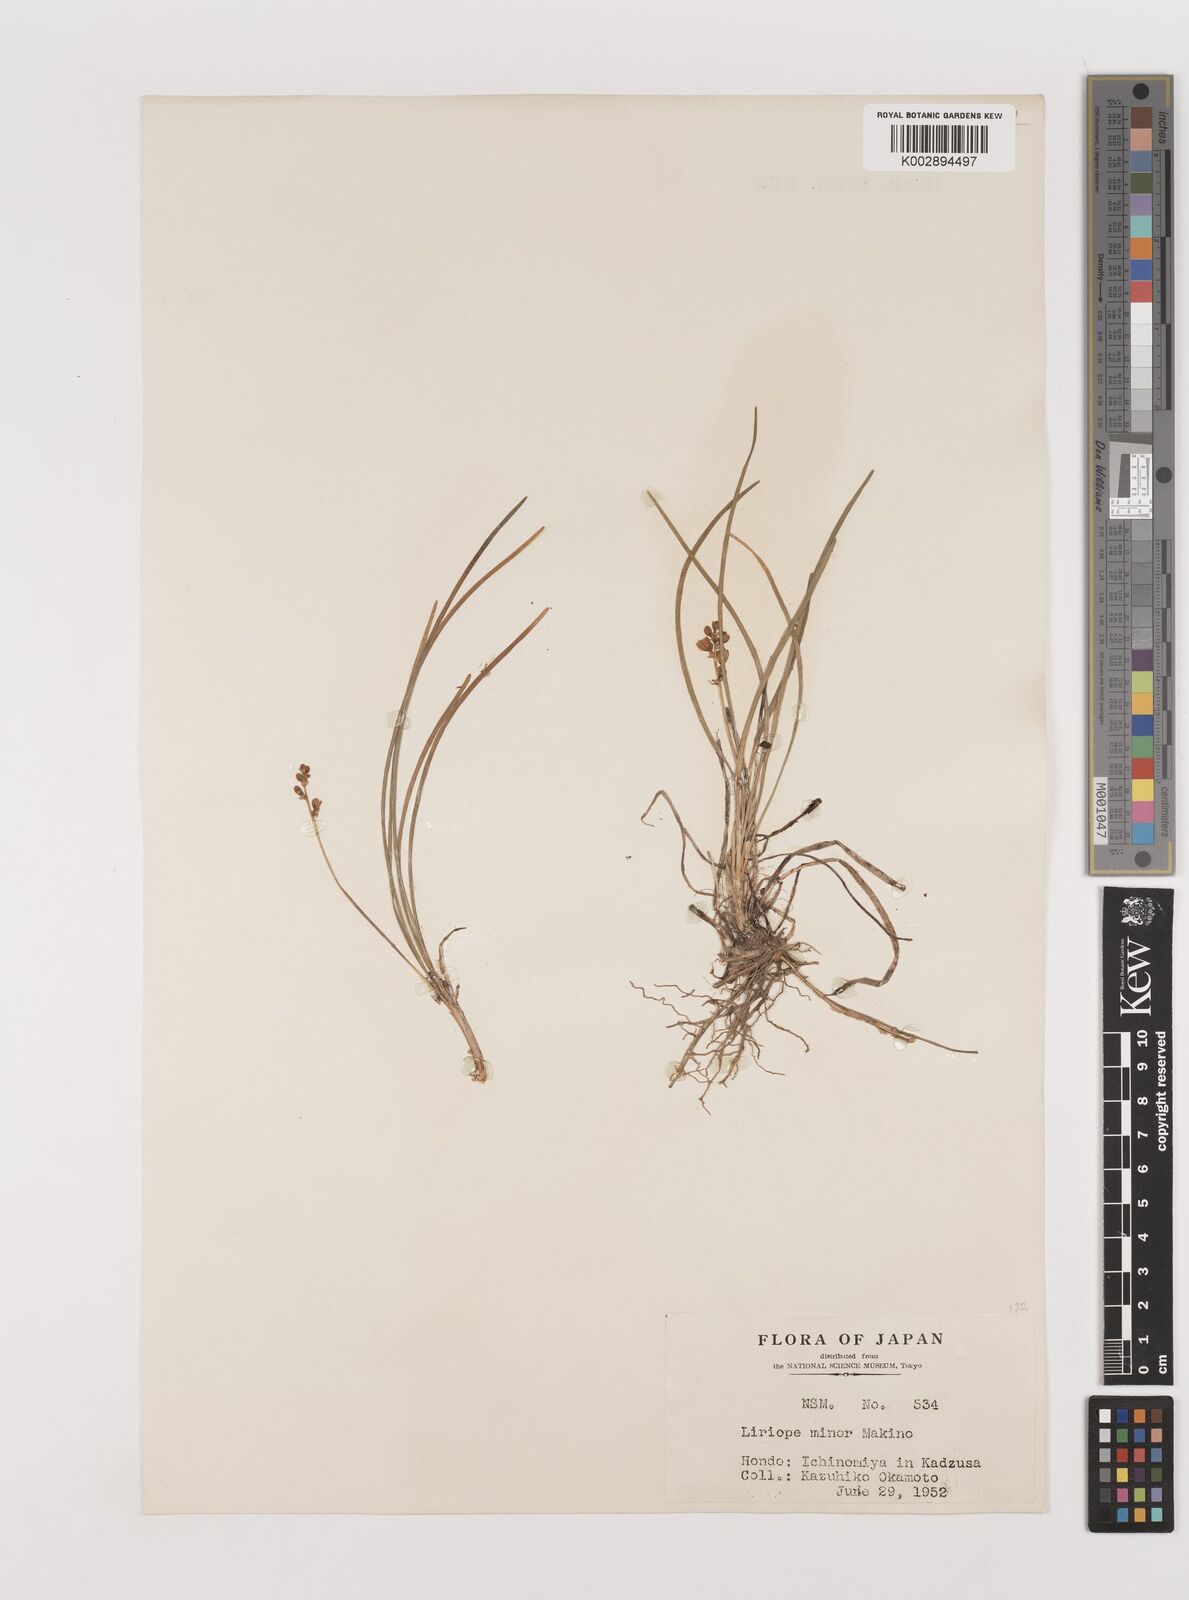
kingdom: Plantae
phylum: Tracheophyta
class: Liliopsida
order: Asparagales
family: Asparagaceae
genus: Liriope
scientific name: Liriope minor
